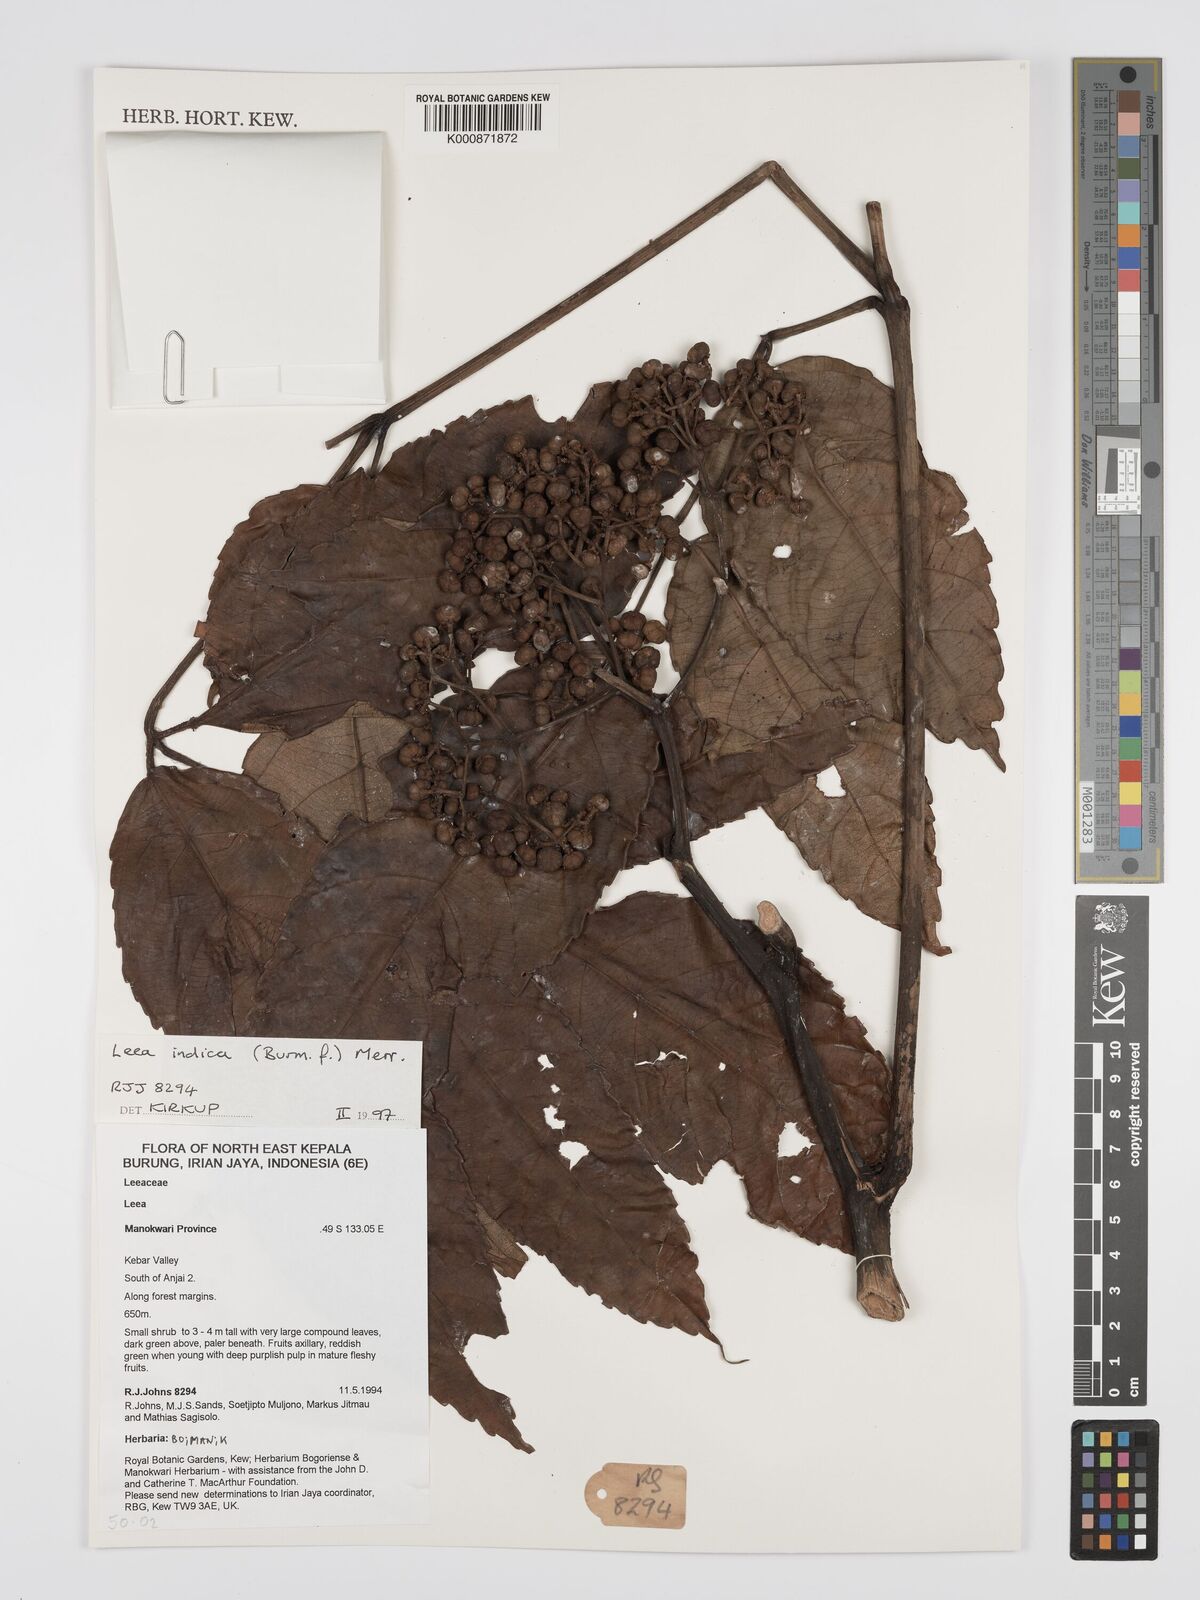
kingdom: Plantae
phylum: Tracheophyta
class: Magnoliopsida
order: Vitales
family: Vitaceae
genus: Leea
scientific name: Leea indica
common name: Bandicoot-berry
